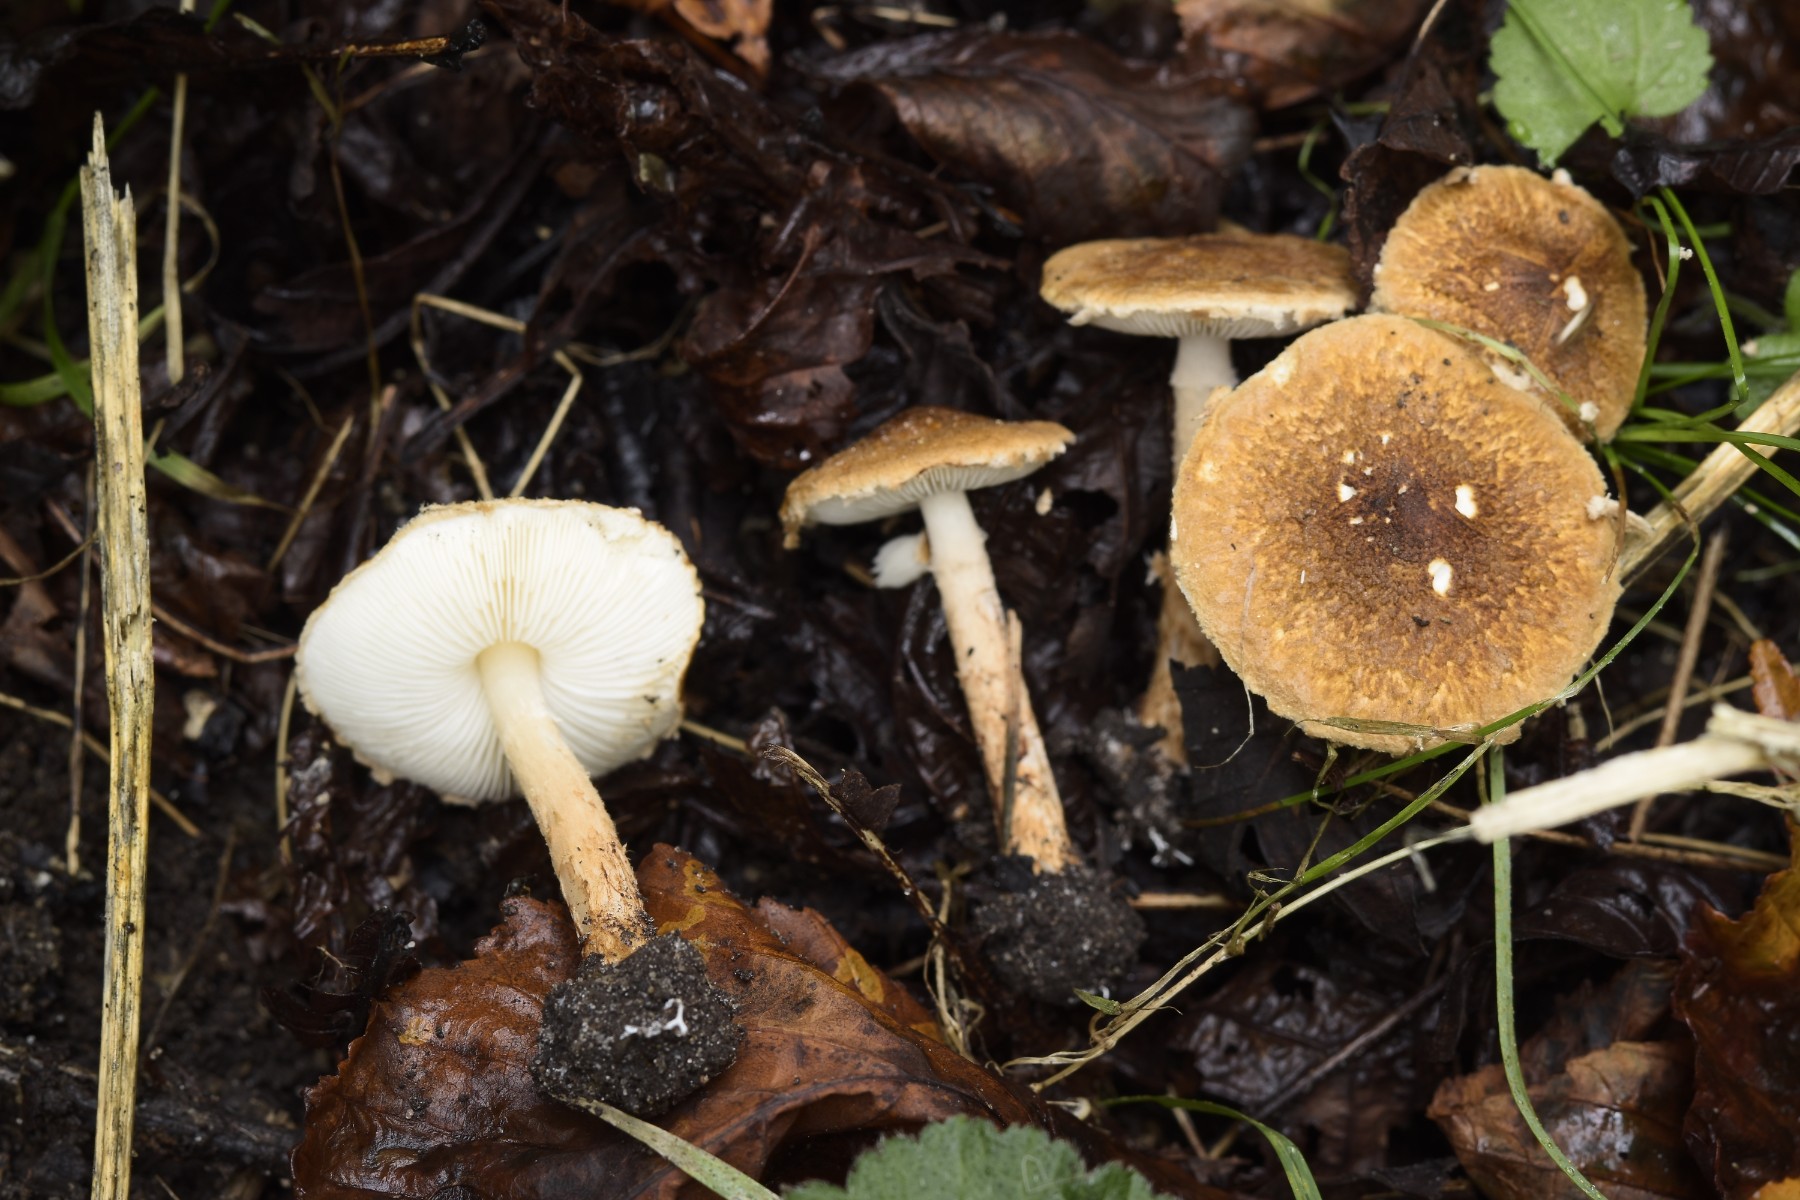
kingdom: Fungi
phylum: Basidiomycota
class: Agaricomycetes
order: Agaricales
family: Agaricaceae
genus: Lepiota
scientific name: Lepiota castanea
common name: kastaniebrun parasolhat
